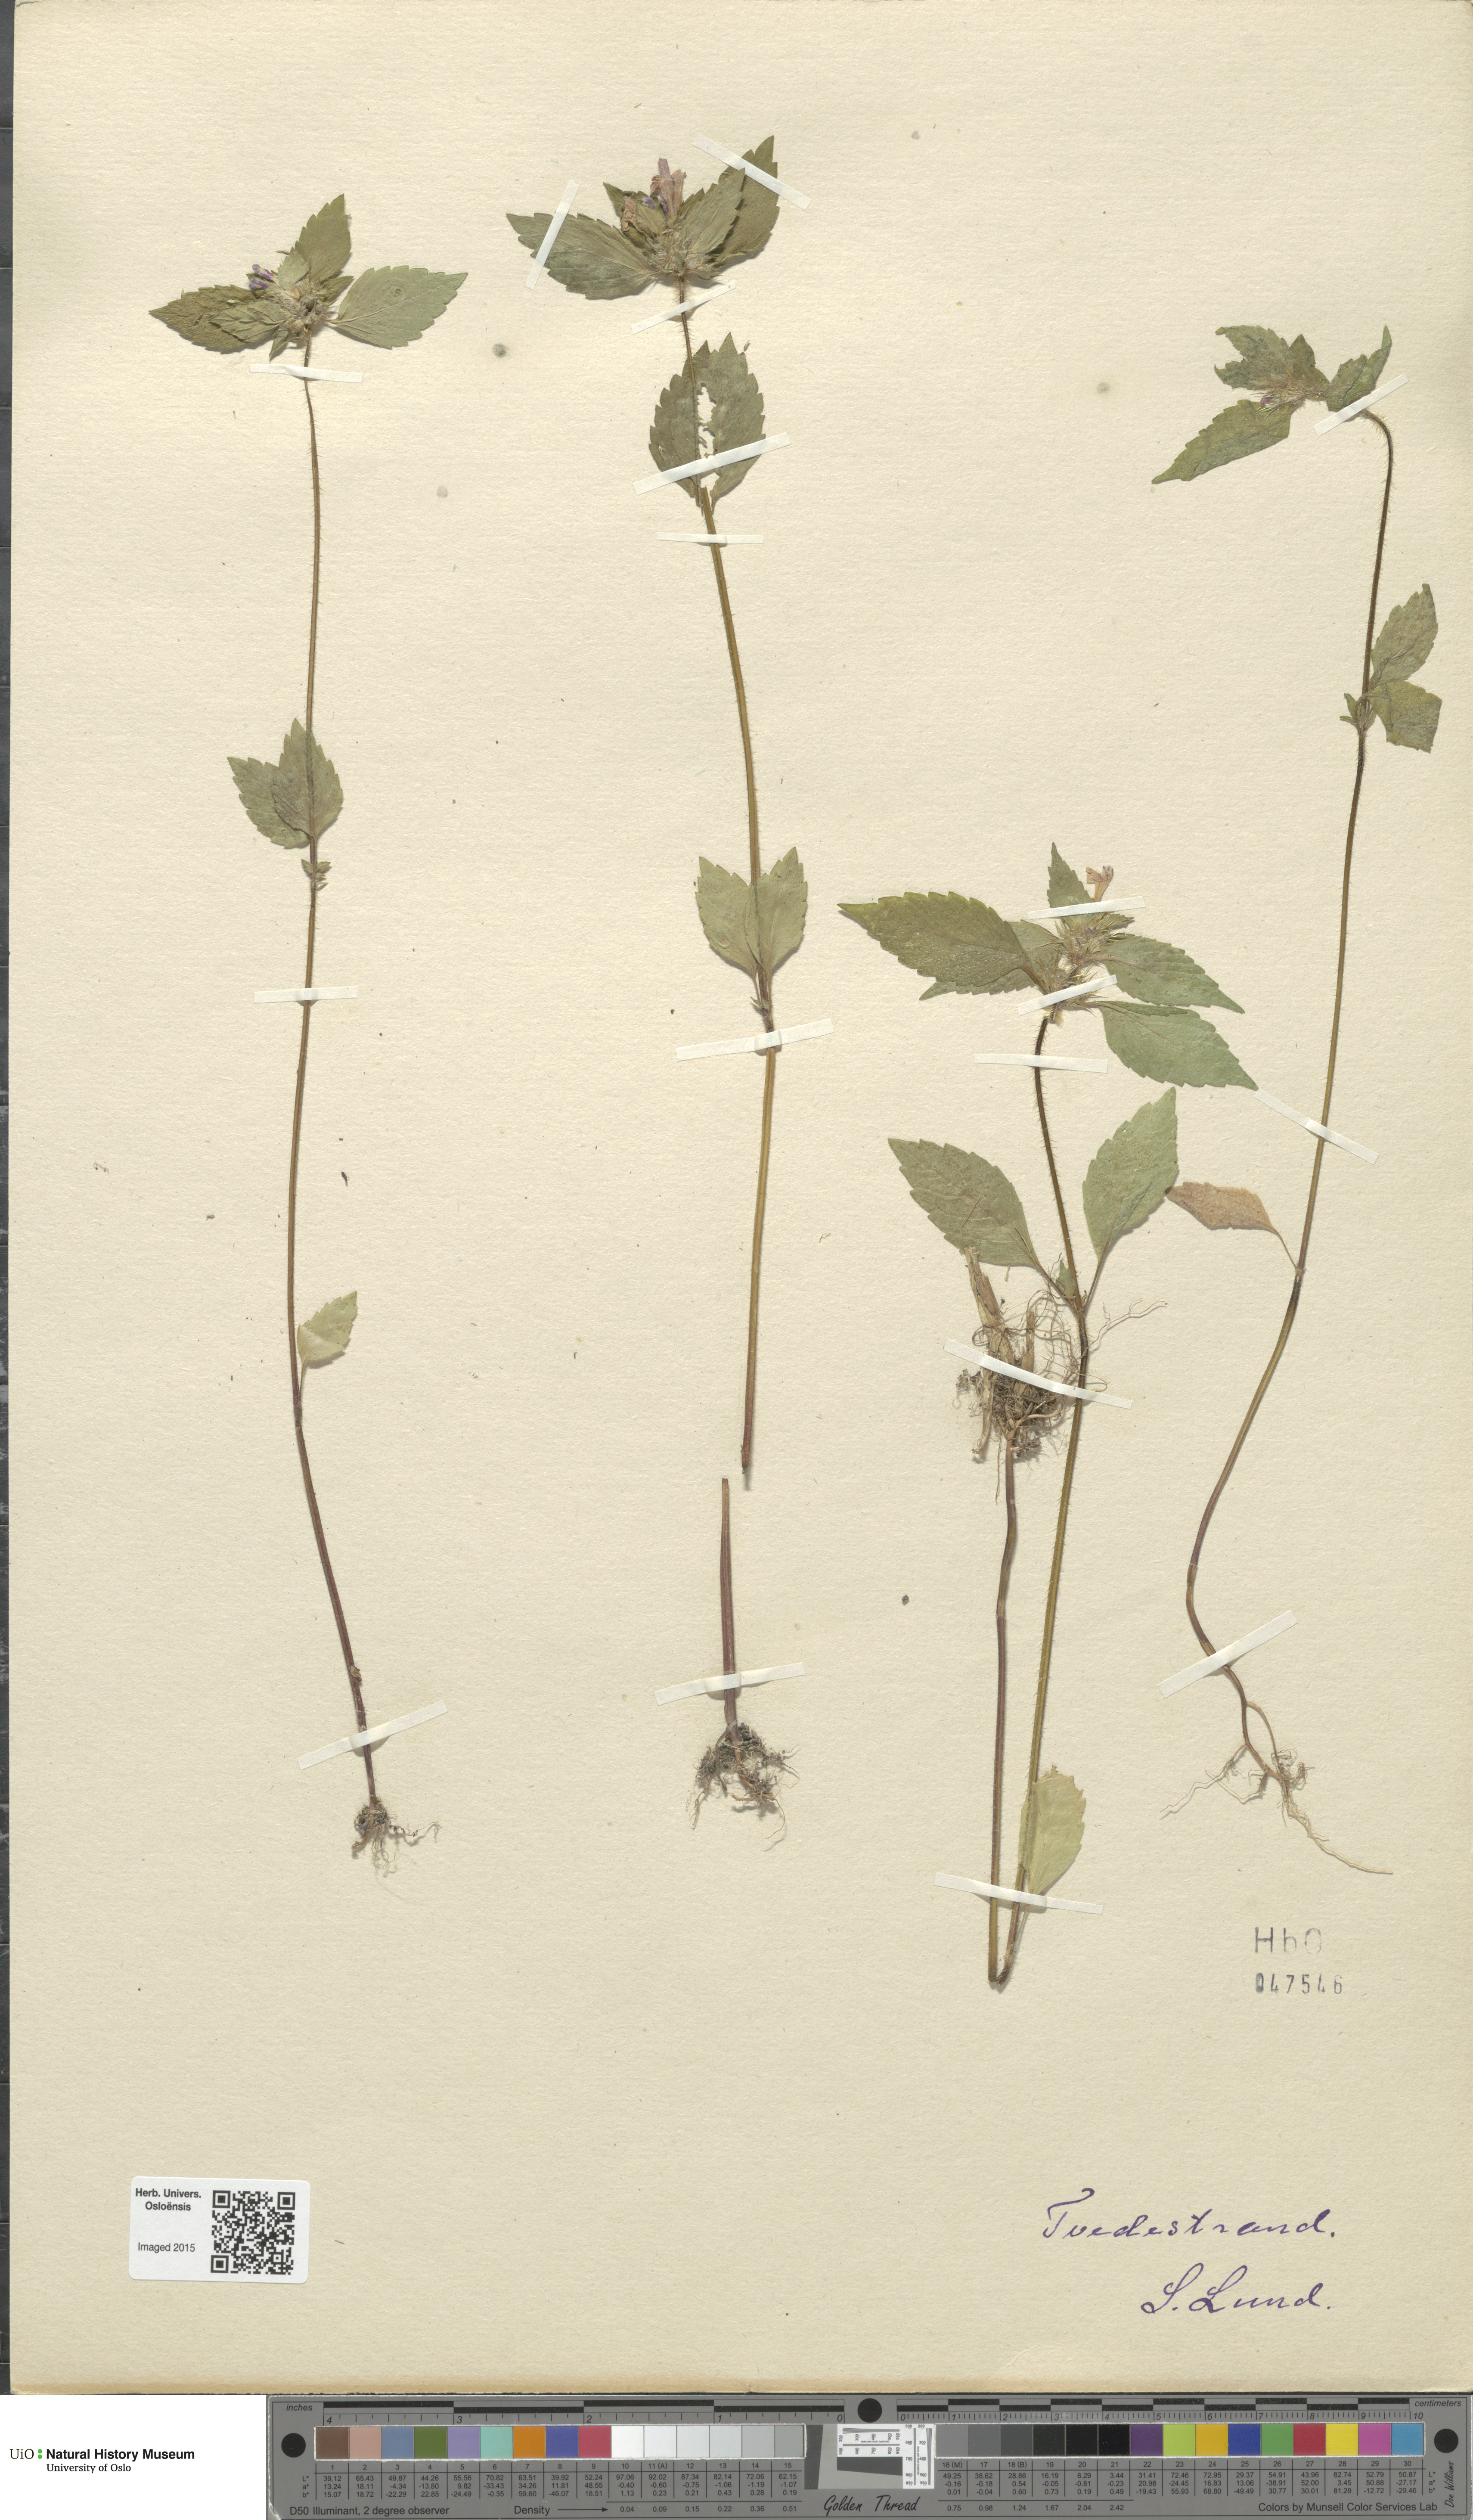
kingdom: Plantae
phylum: Tracheophyta
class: Magnoliopsida
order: Lamiales
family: Lamiaceae
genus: Galeopsis
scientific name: Galeopsis tetrahit
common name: Common hemp-nettle
